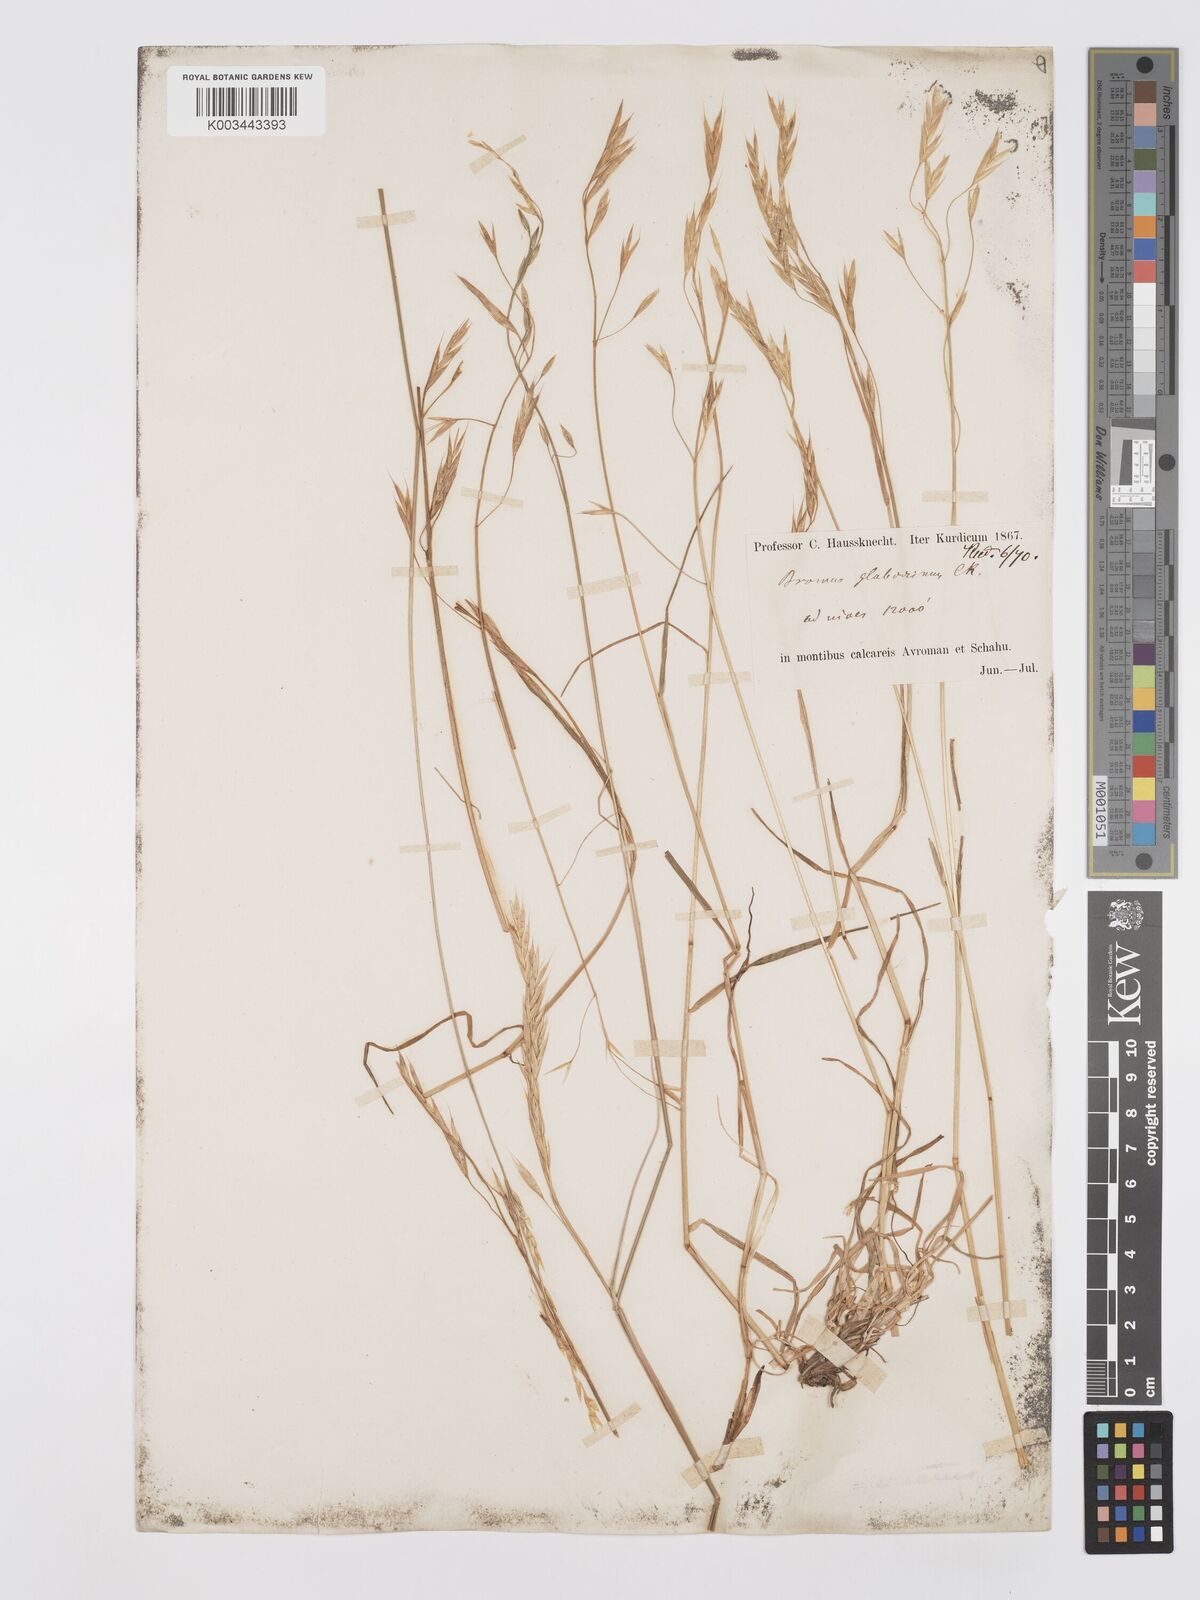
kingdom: Plantae
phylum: Tracheophyta
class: Liliopsida
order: Poales
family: Poaceae
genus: Bromus
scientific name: Bromus frigidus
